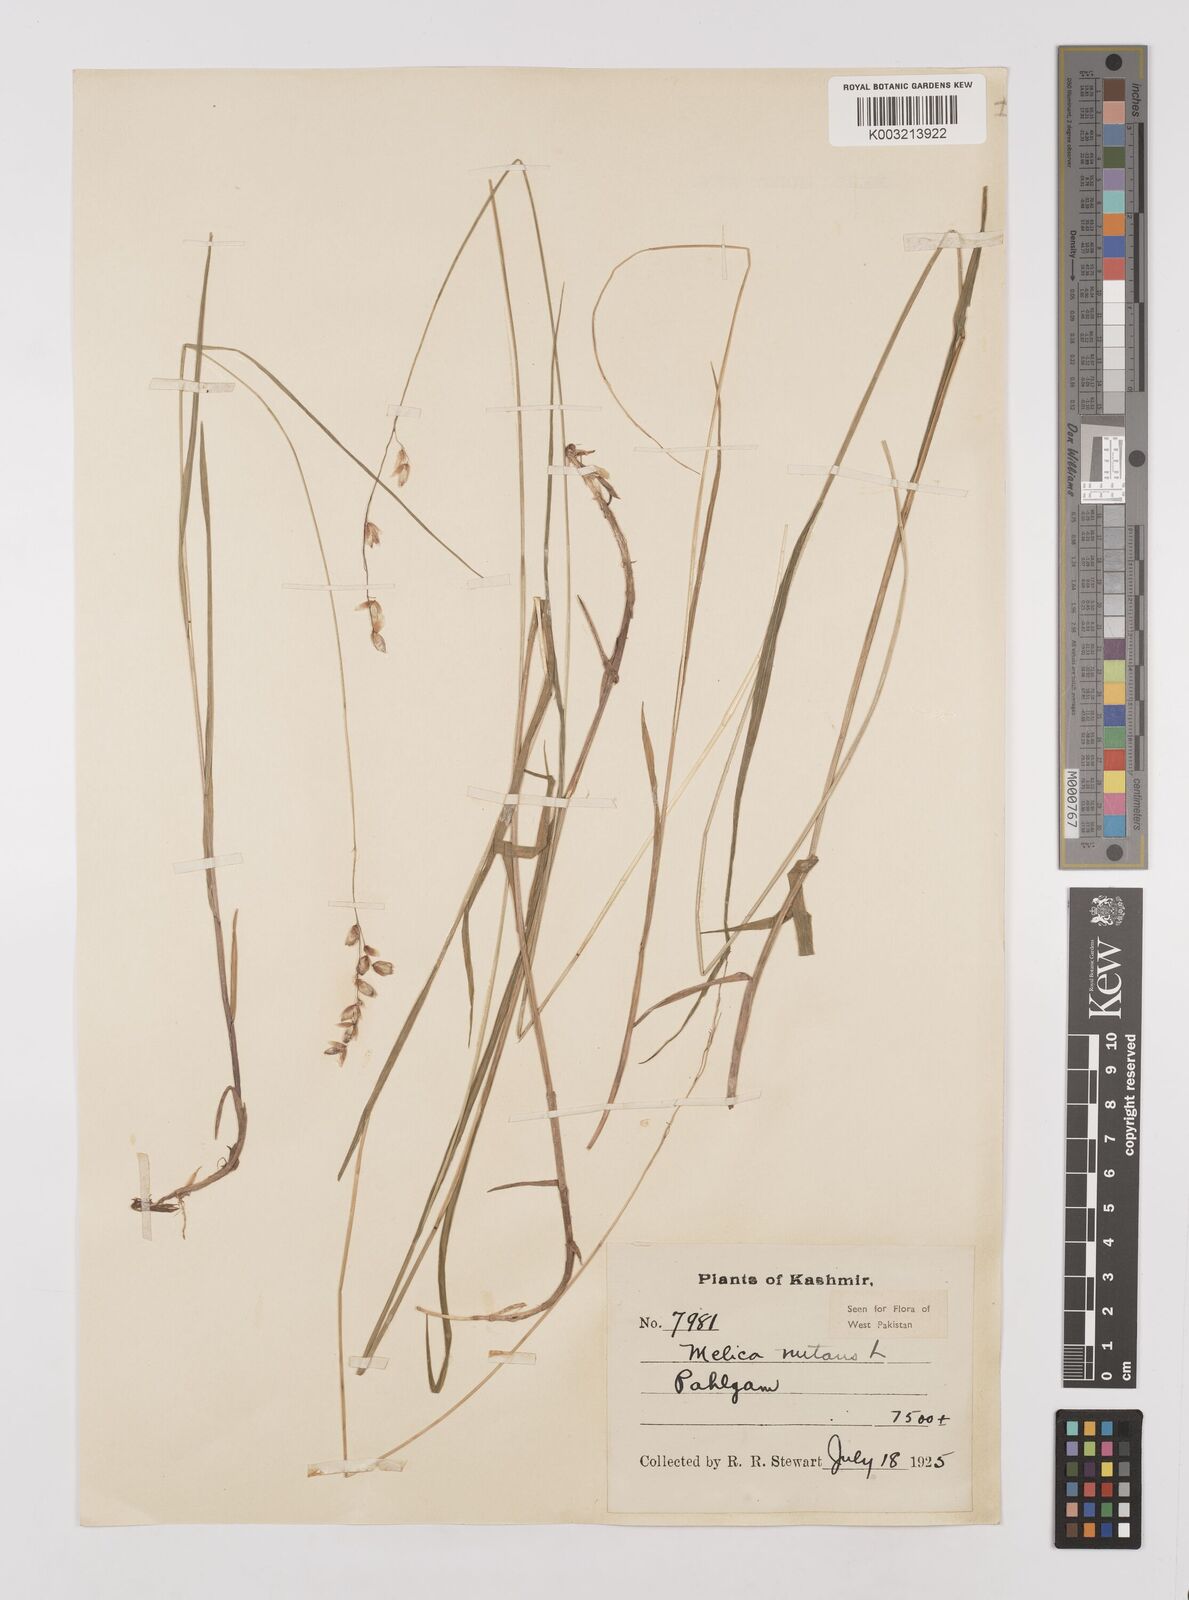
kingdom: Plantae
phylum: Tracheophyta
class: Liliopsida
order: Poales
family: Poaceae
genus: Melica
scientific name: Melica nutans
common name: Mountain melick
